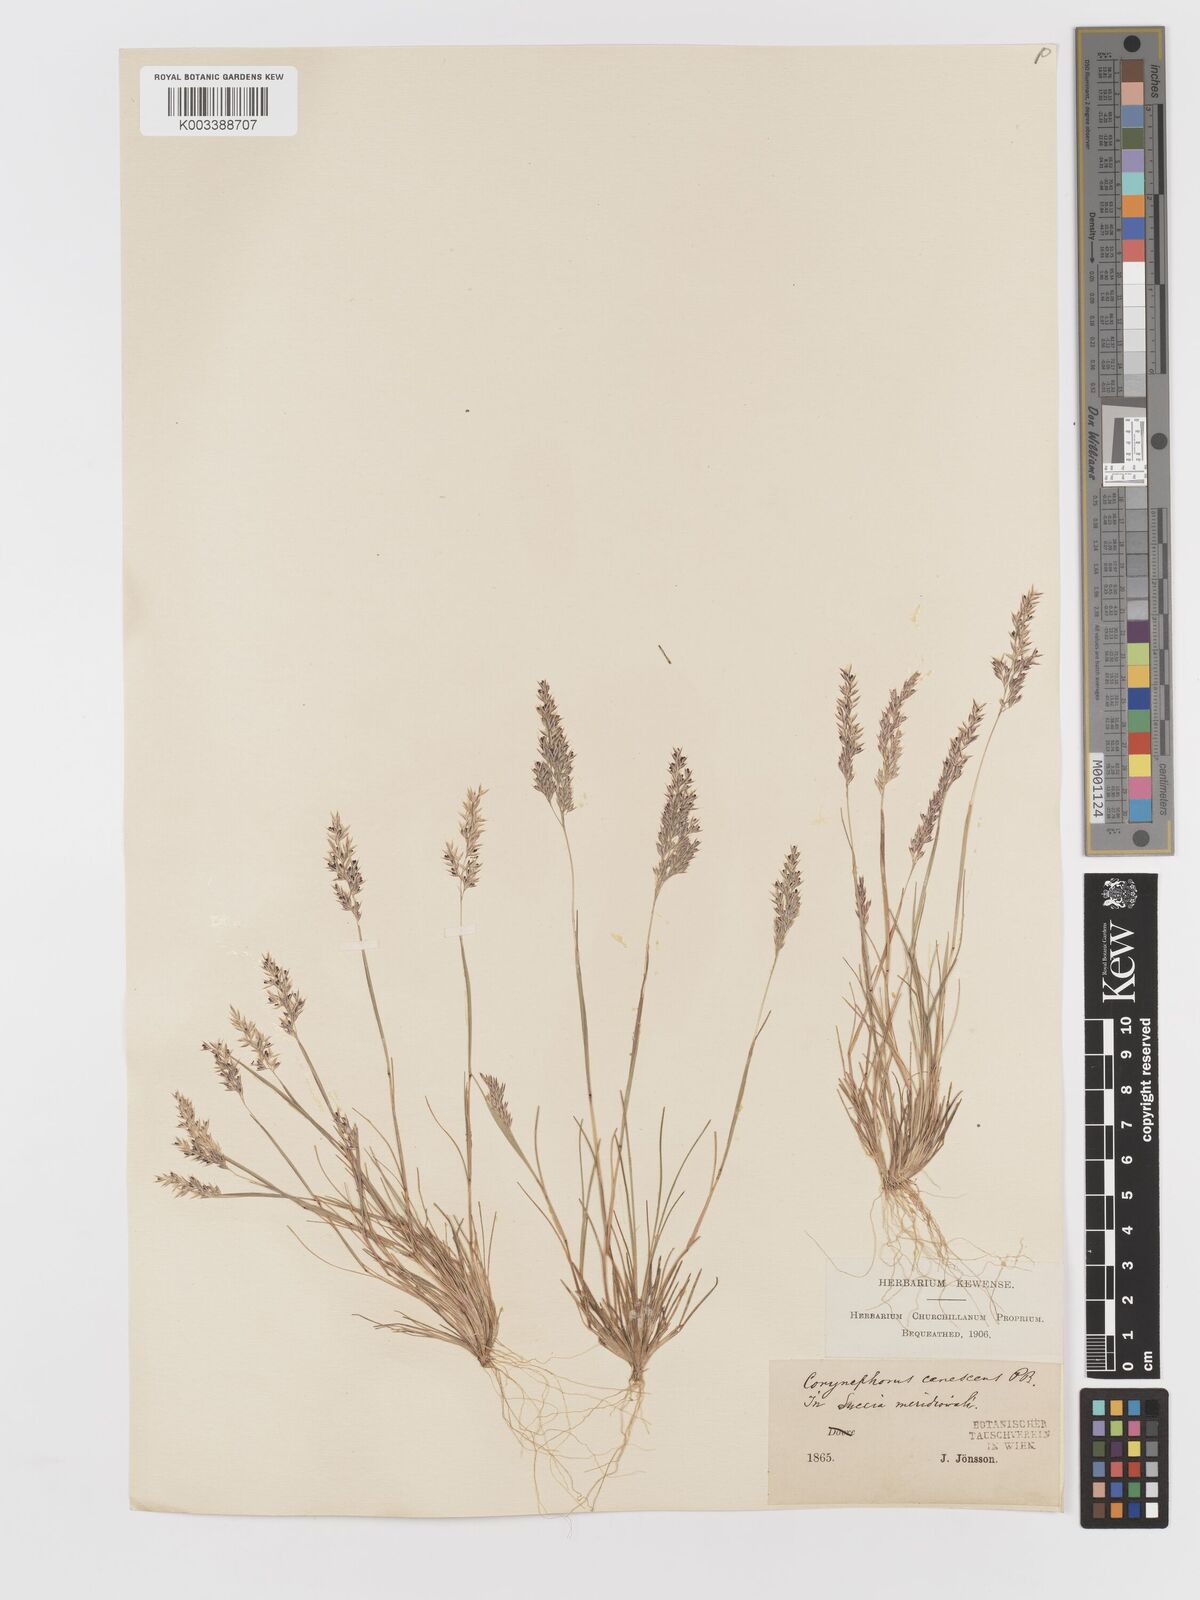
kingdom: Plantae
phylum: Tracheophyta
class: Liliopsida
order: Poales
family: Poaceae
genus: Corynephorus
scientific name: Corynephorus canescens
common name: Grey hair-grass
